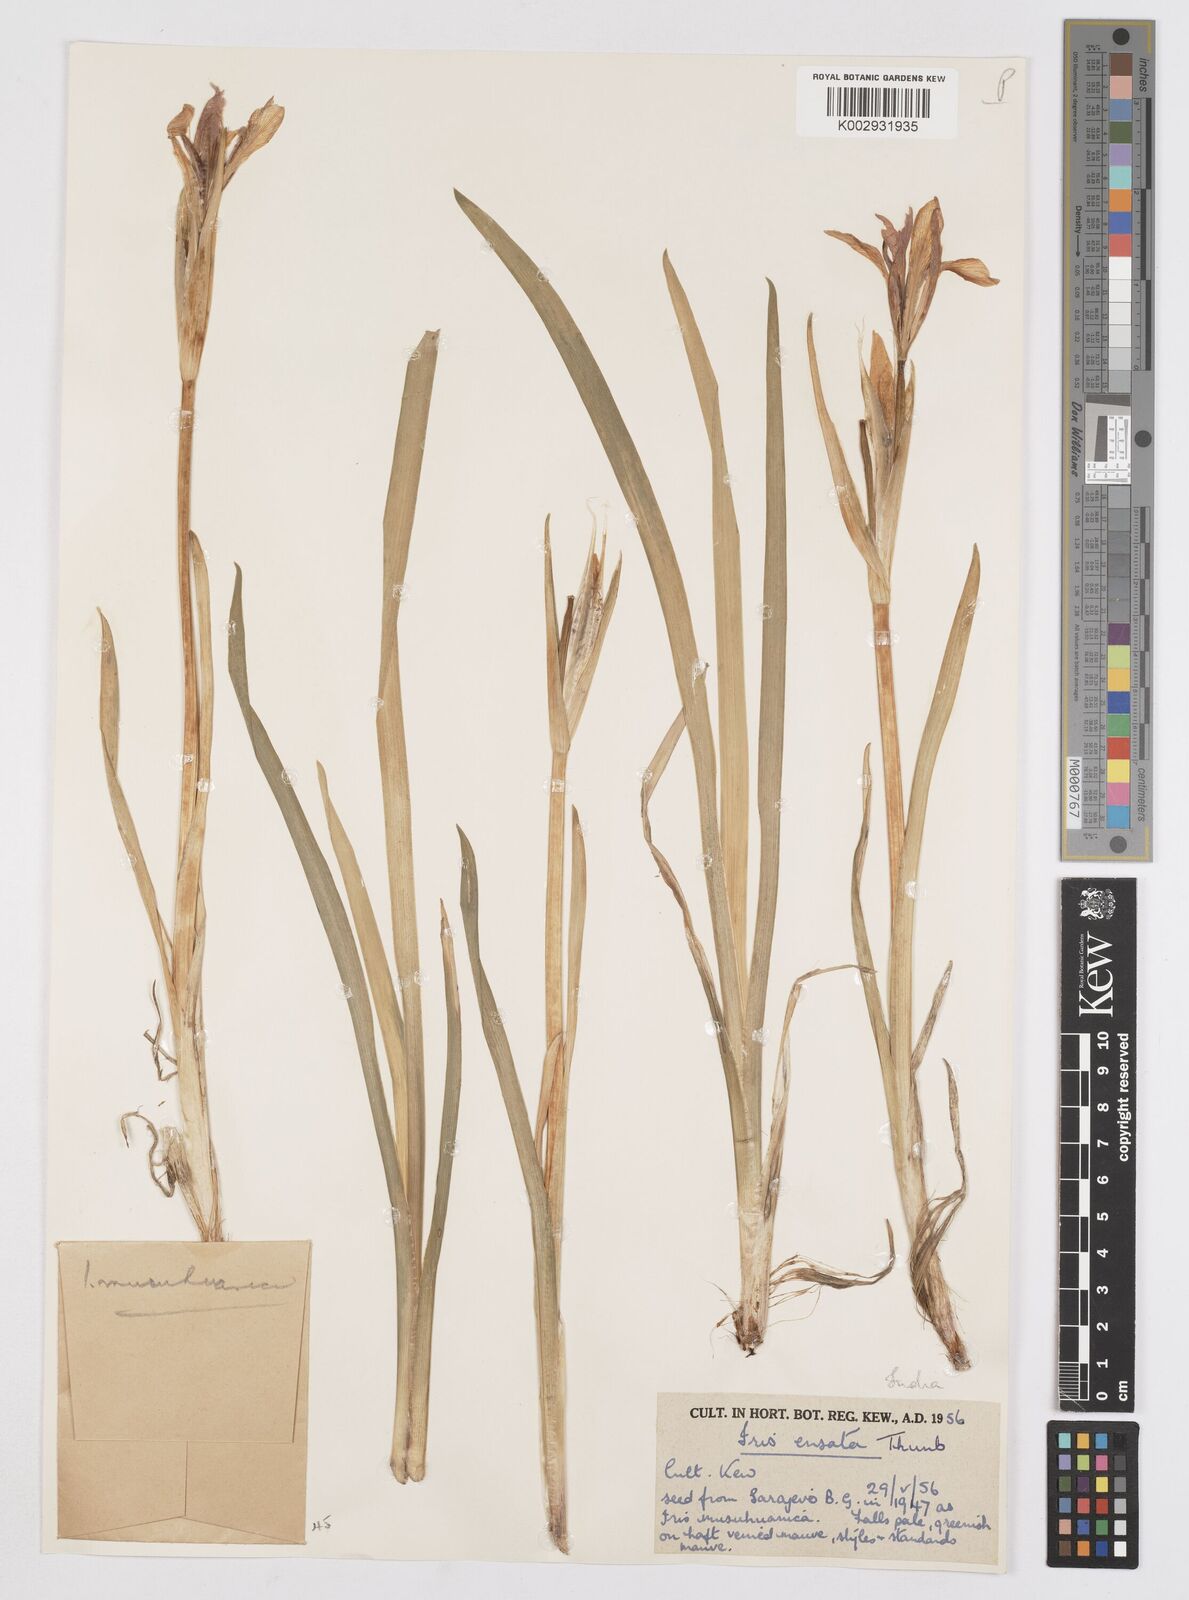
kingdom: Plantae
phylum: Tracheophyta
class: Liliopsida
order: Asparagales
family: Iridaceae
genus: Iris
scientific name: Iris ensata
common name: Beaked iris
